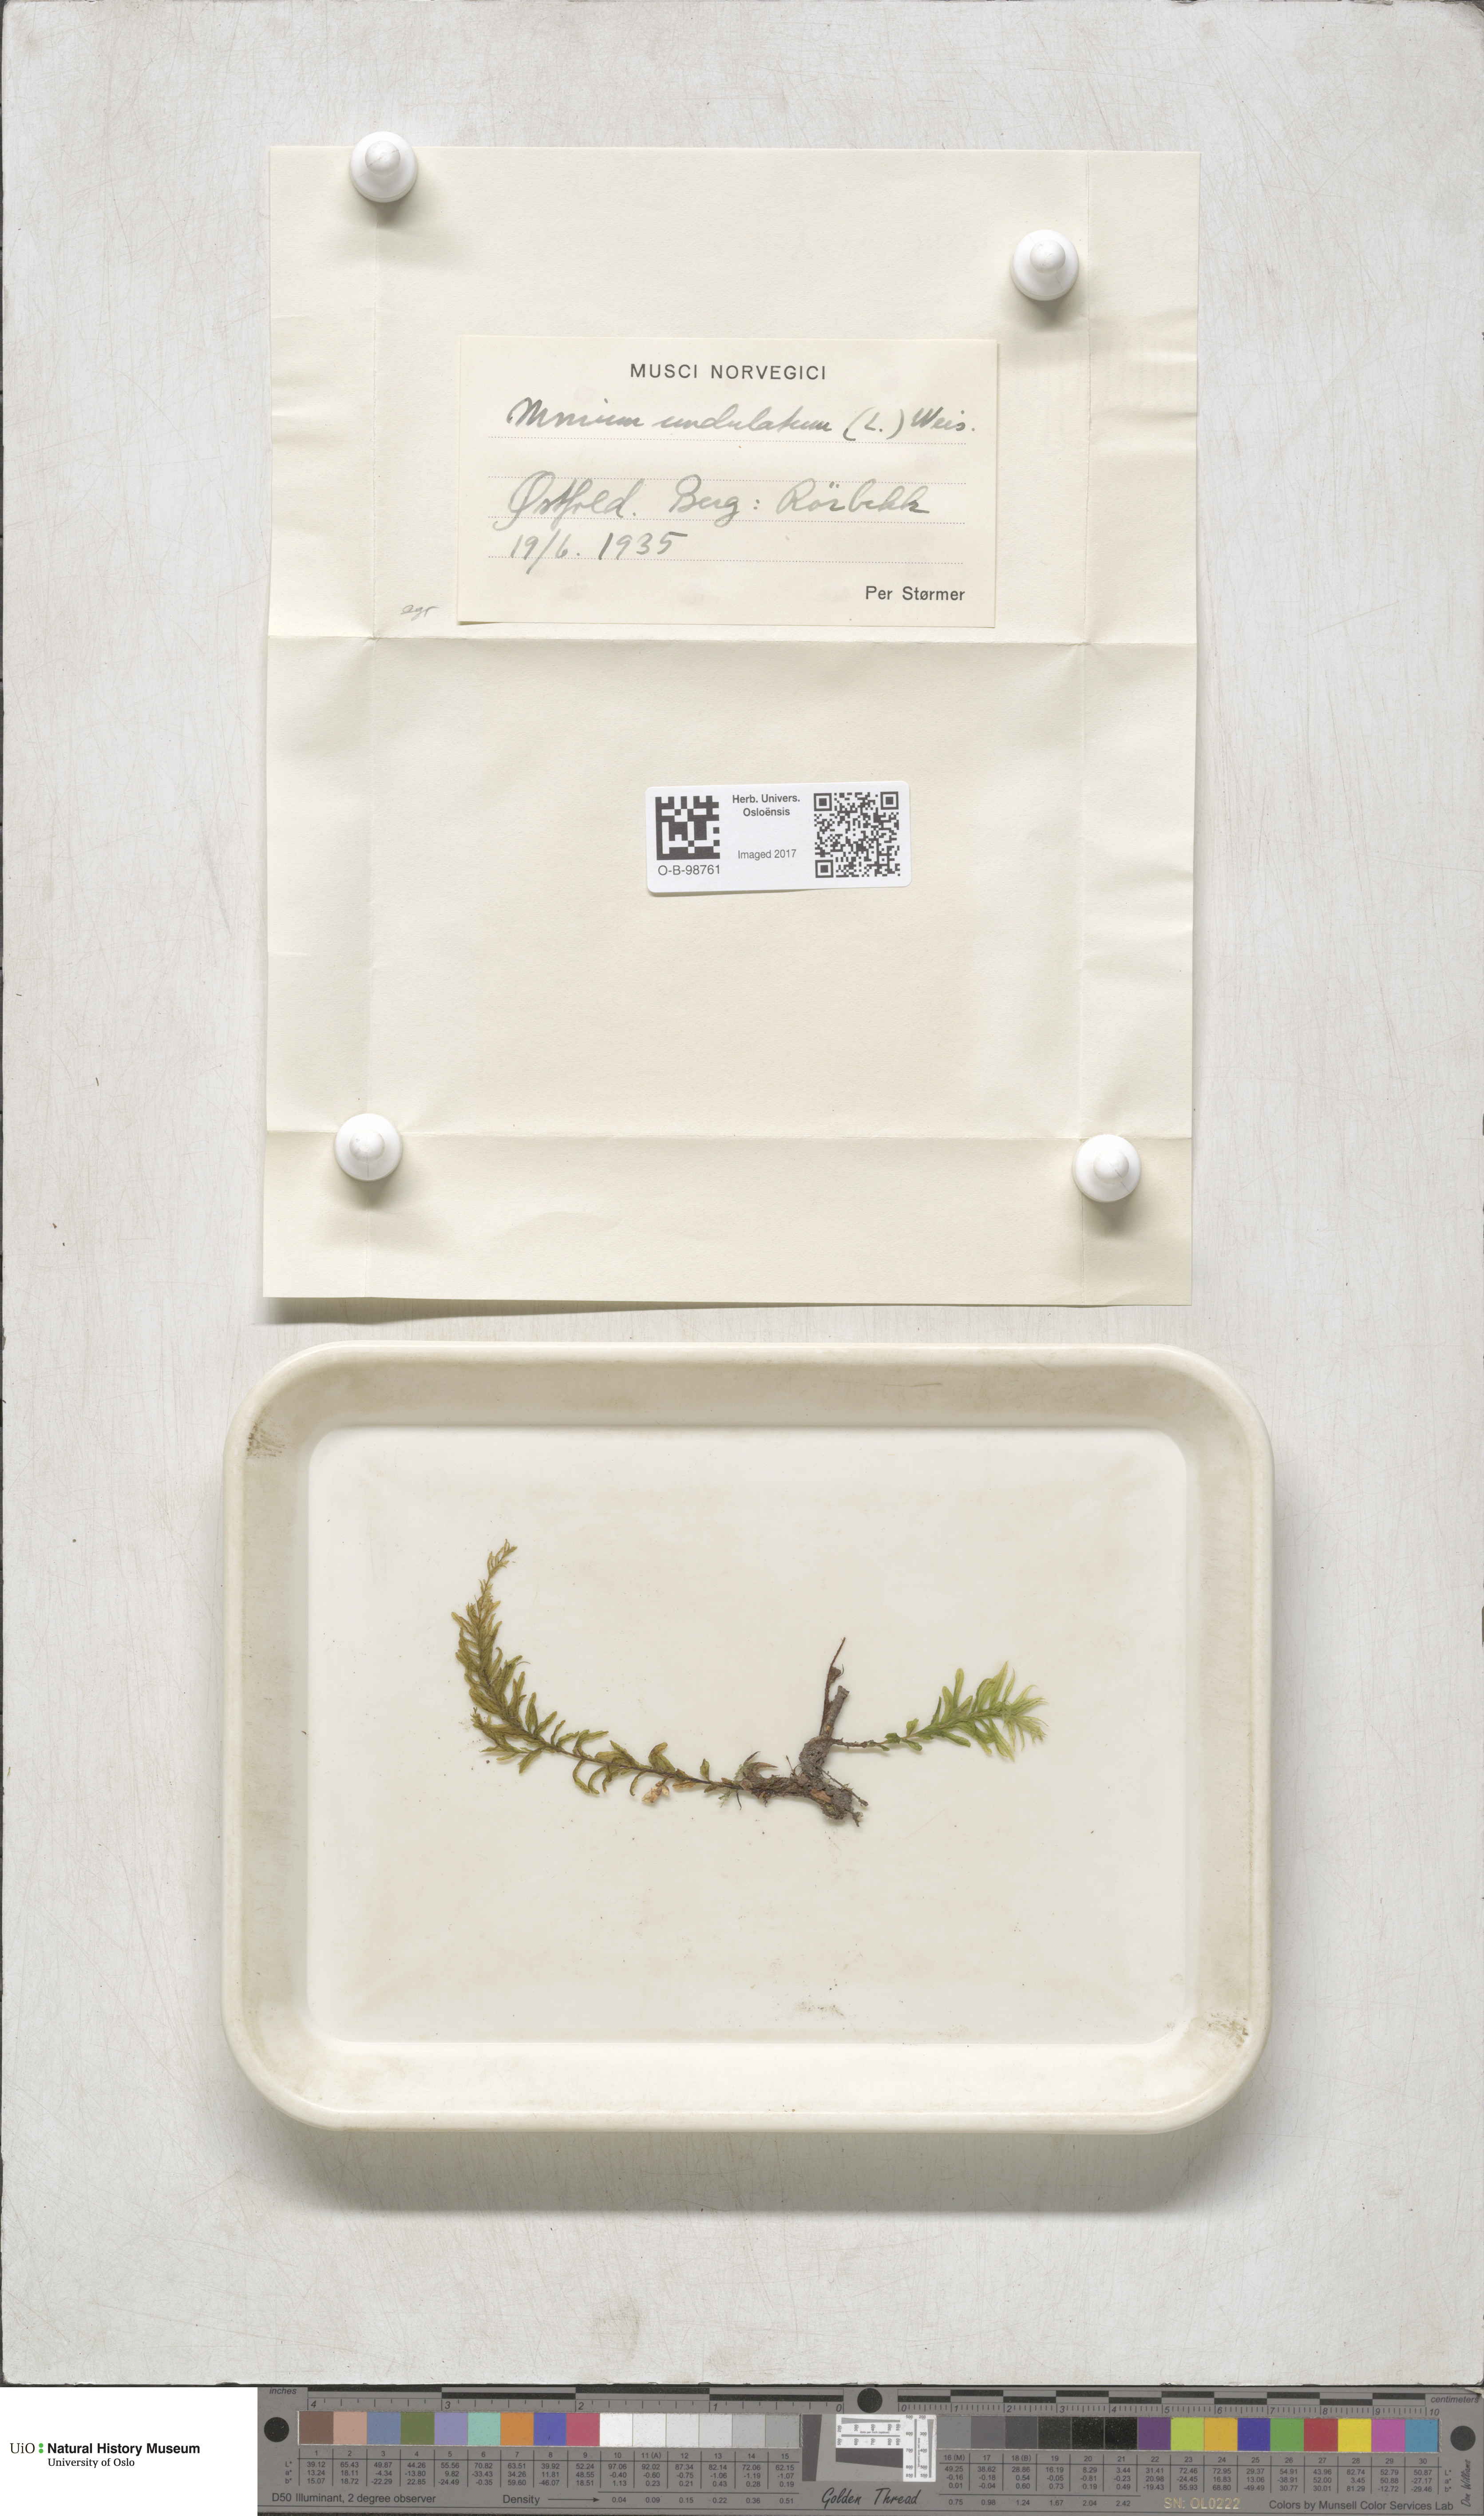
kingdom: Plantae
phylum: Bryophyta
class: Bryopsida
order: Bryales
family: Mniaceae
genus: Plagiomnium
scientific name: Plagiomnium undulatum
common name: Hart's-tongue thyme-moss
